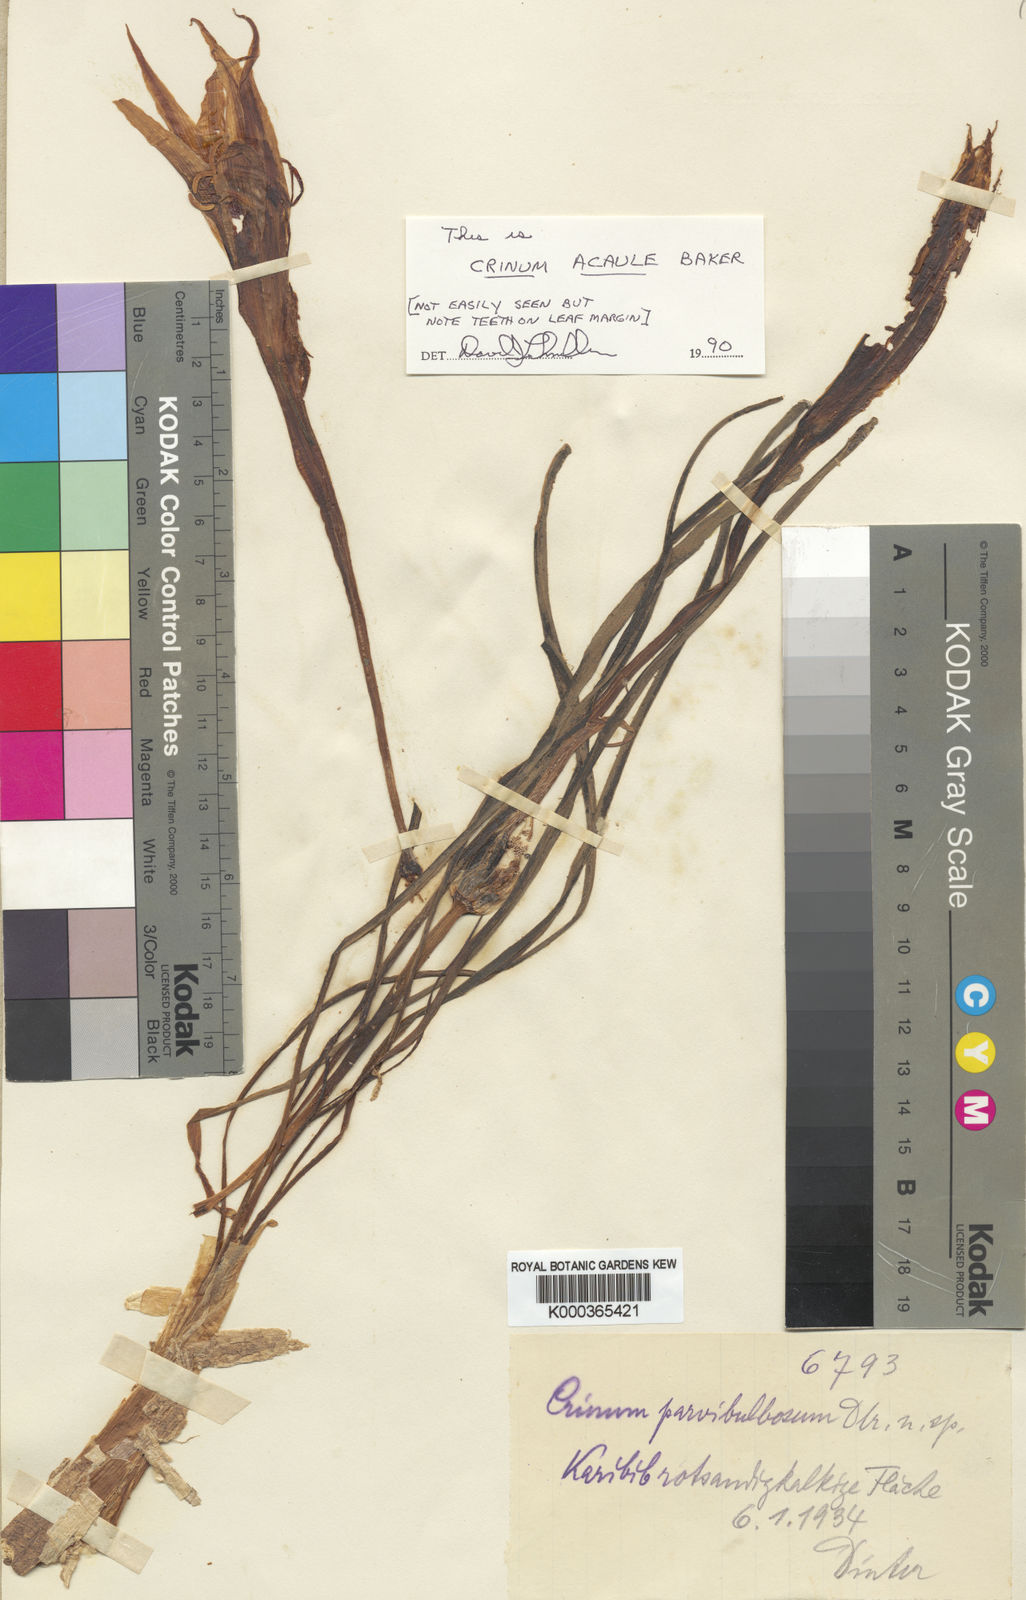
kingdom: Plantae
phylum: Tracheophyta
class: Liliopsida
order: Asparagales
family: Amaryllidaceae
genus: Crinum
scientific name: Crinum acaule
